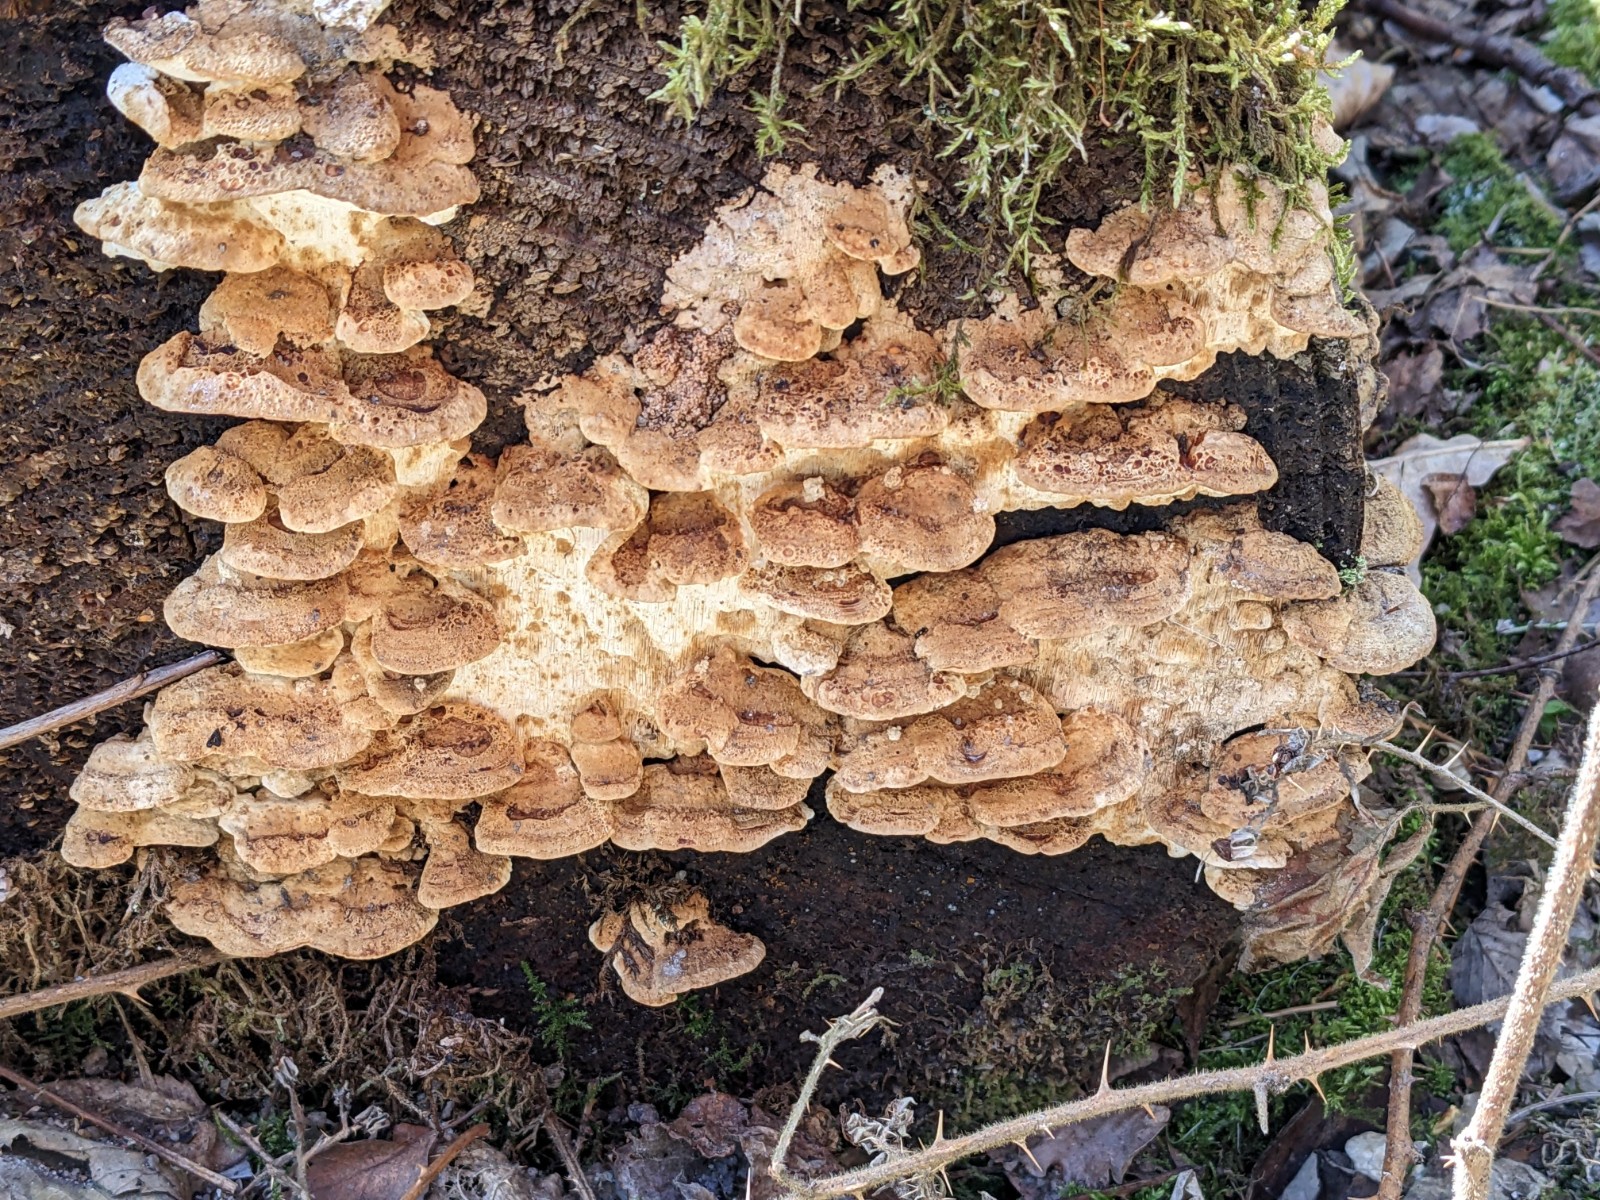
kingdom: Fungi
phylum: Basidiomycota
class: Agaricomycetes
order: Polyporales
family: Fomitopsidaceae
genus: Neoantrodia
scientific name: Neoantrodia serialis
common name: række-sejporesvamp
